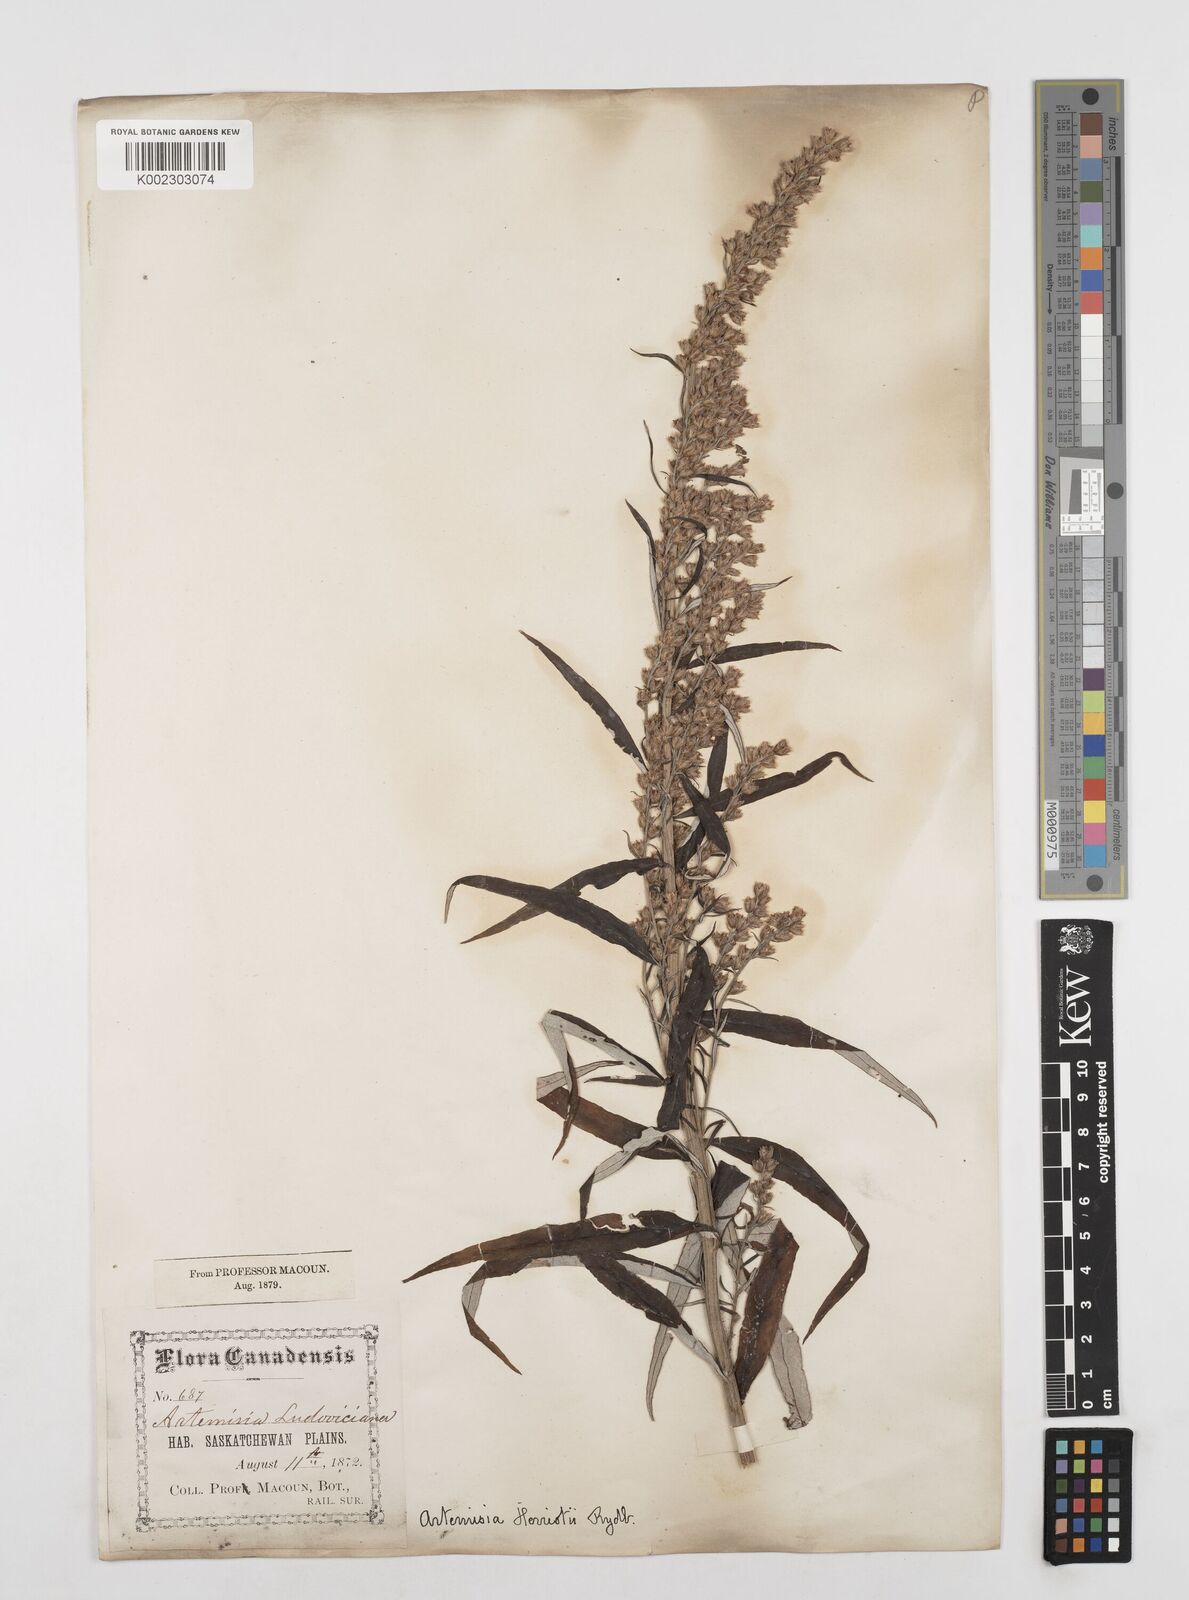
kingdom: Plantae
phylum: Tracheophyta
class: Magnoliopsida
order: Asterales
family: Asteraceae
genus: Artemisia
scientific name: Artemisia tilesii
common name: Aleutian mugwort
